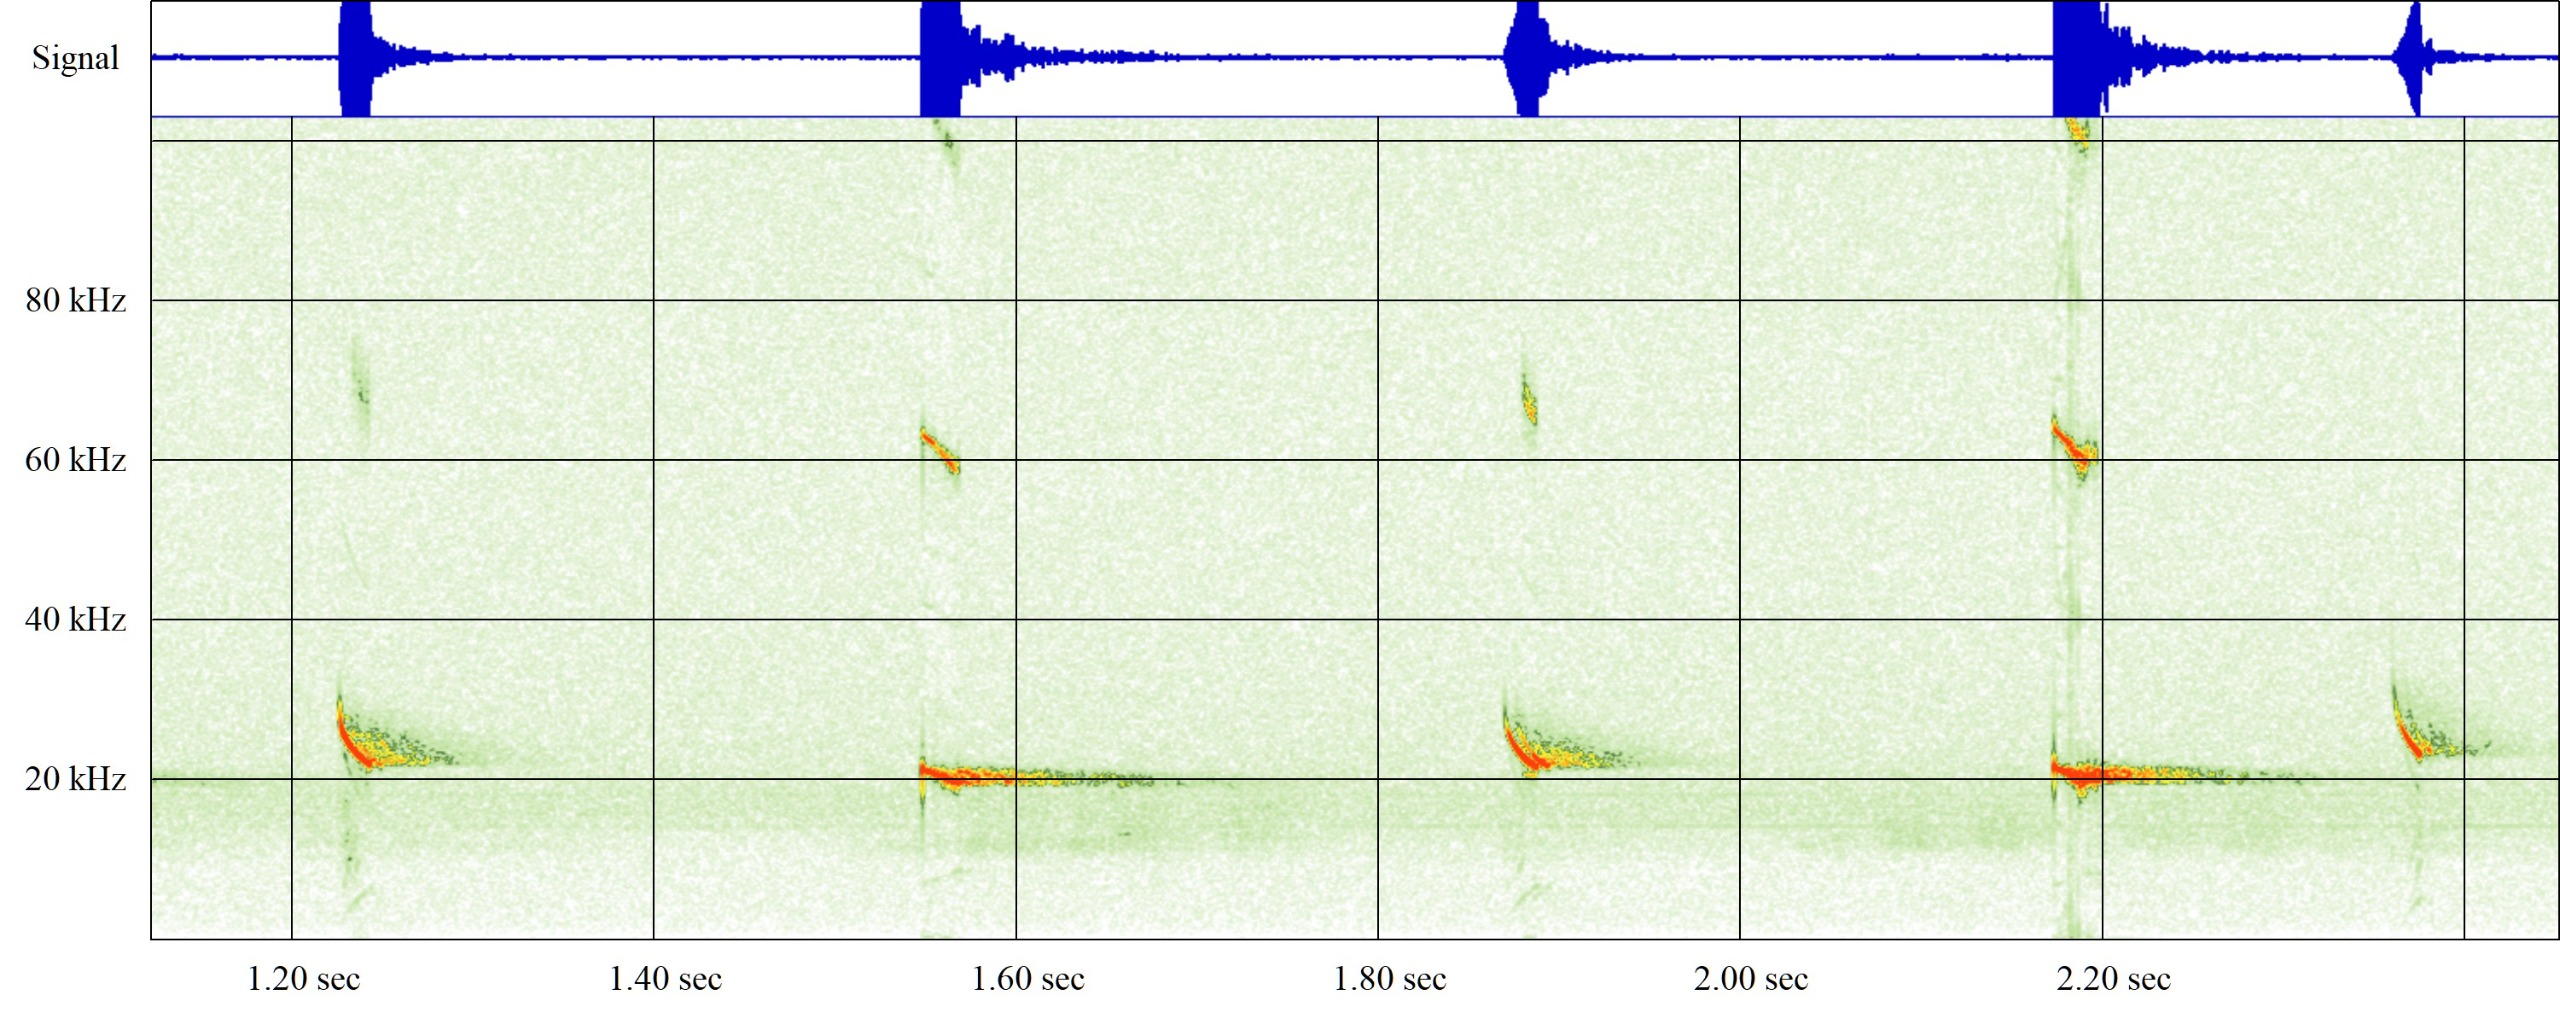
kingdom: Animalia
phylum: Chordata
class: Mammalia
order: Chiroptera
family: Vespertilionidae
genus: Nyctalus
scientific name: Nyctalus noctula
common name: Brunflagermus
